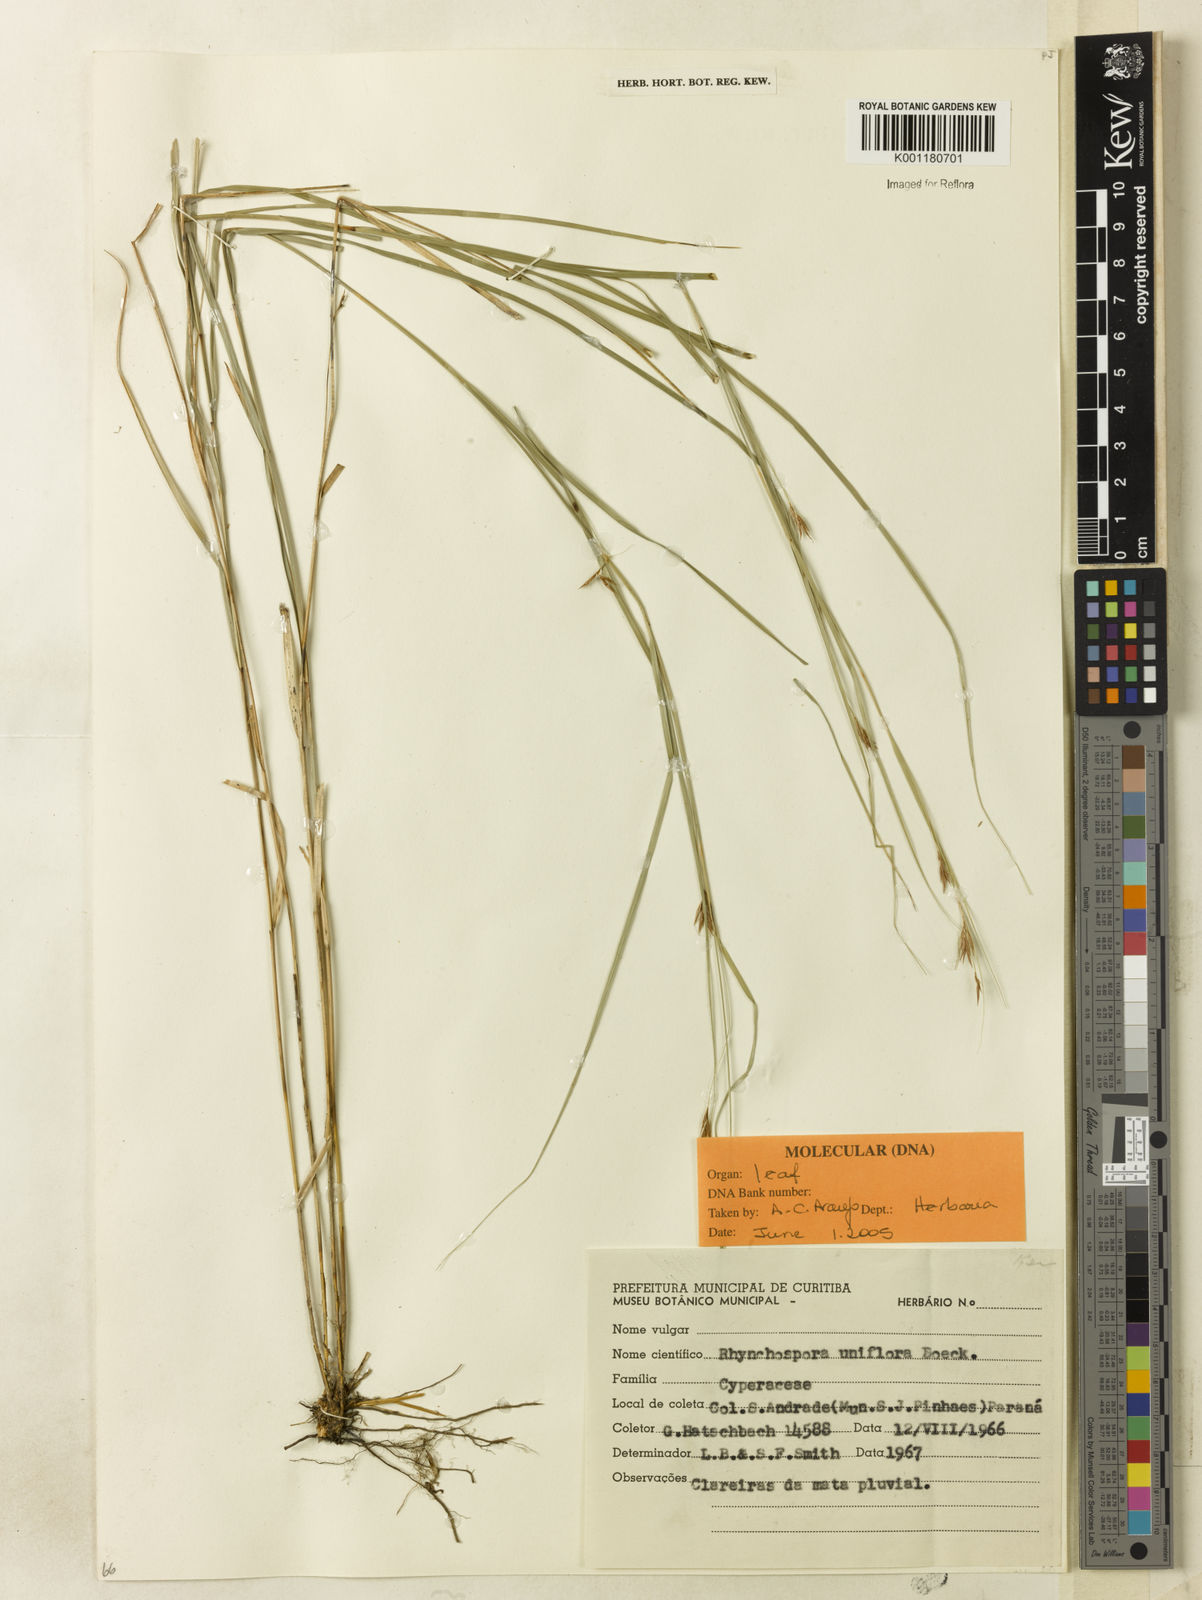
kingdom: Plantae
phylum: Tracheophyta
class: Liliopsida
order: Poales
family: Cyperaceae
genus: Rhynchospora
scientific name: Rhynchospora biflora
